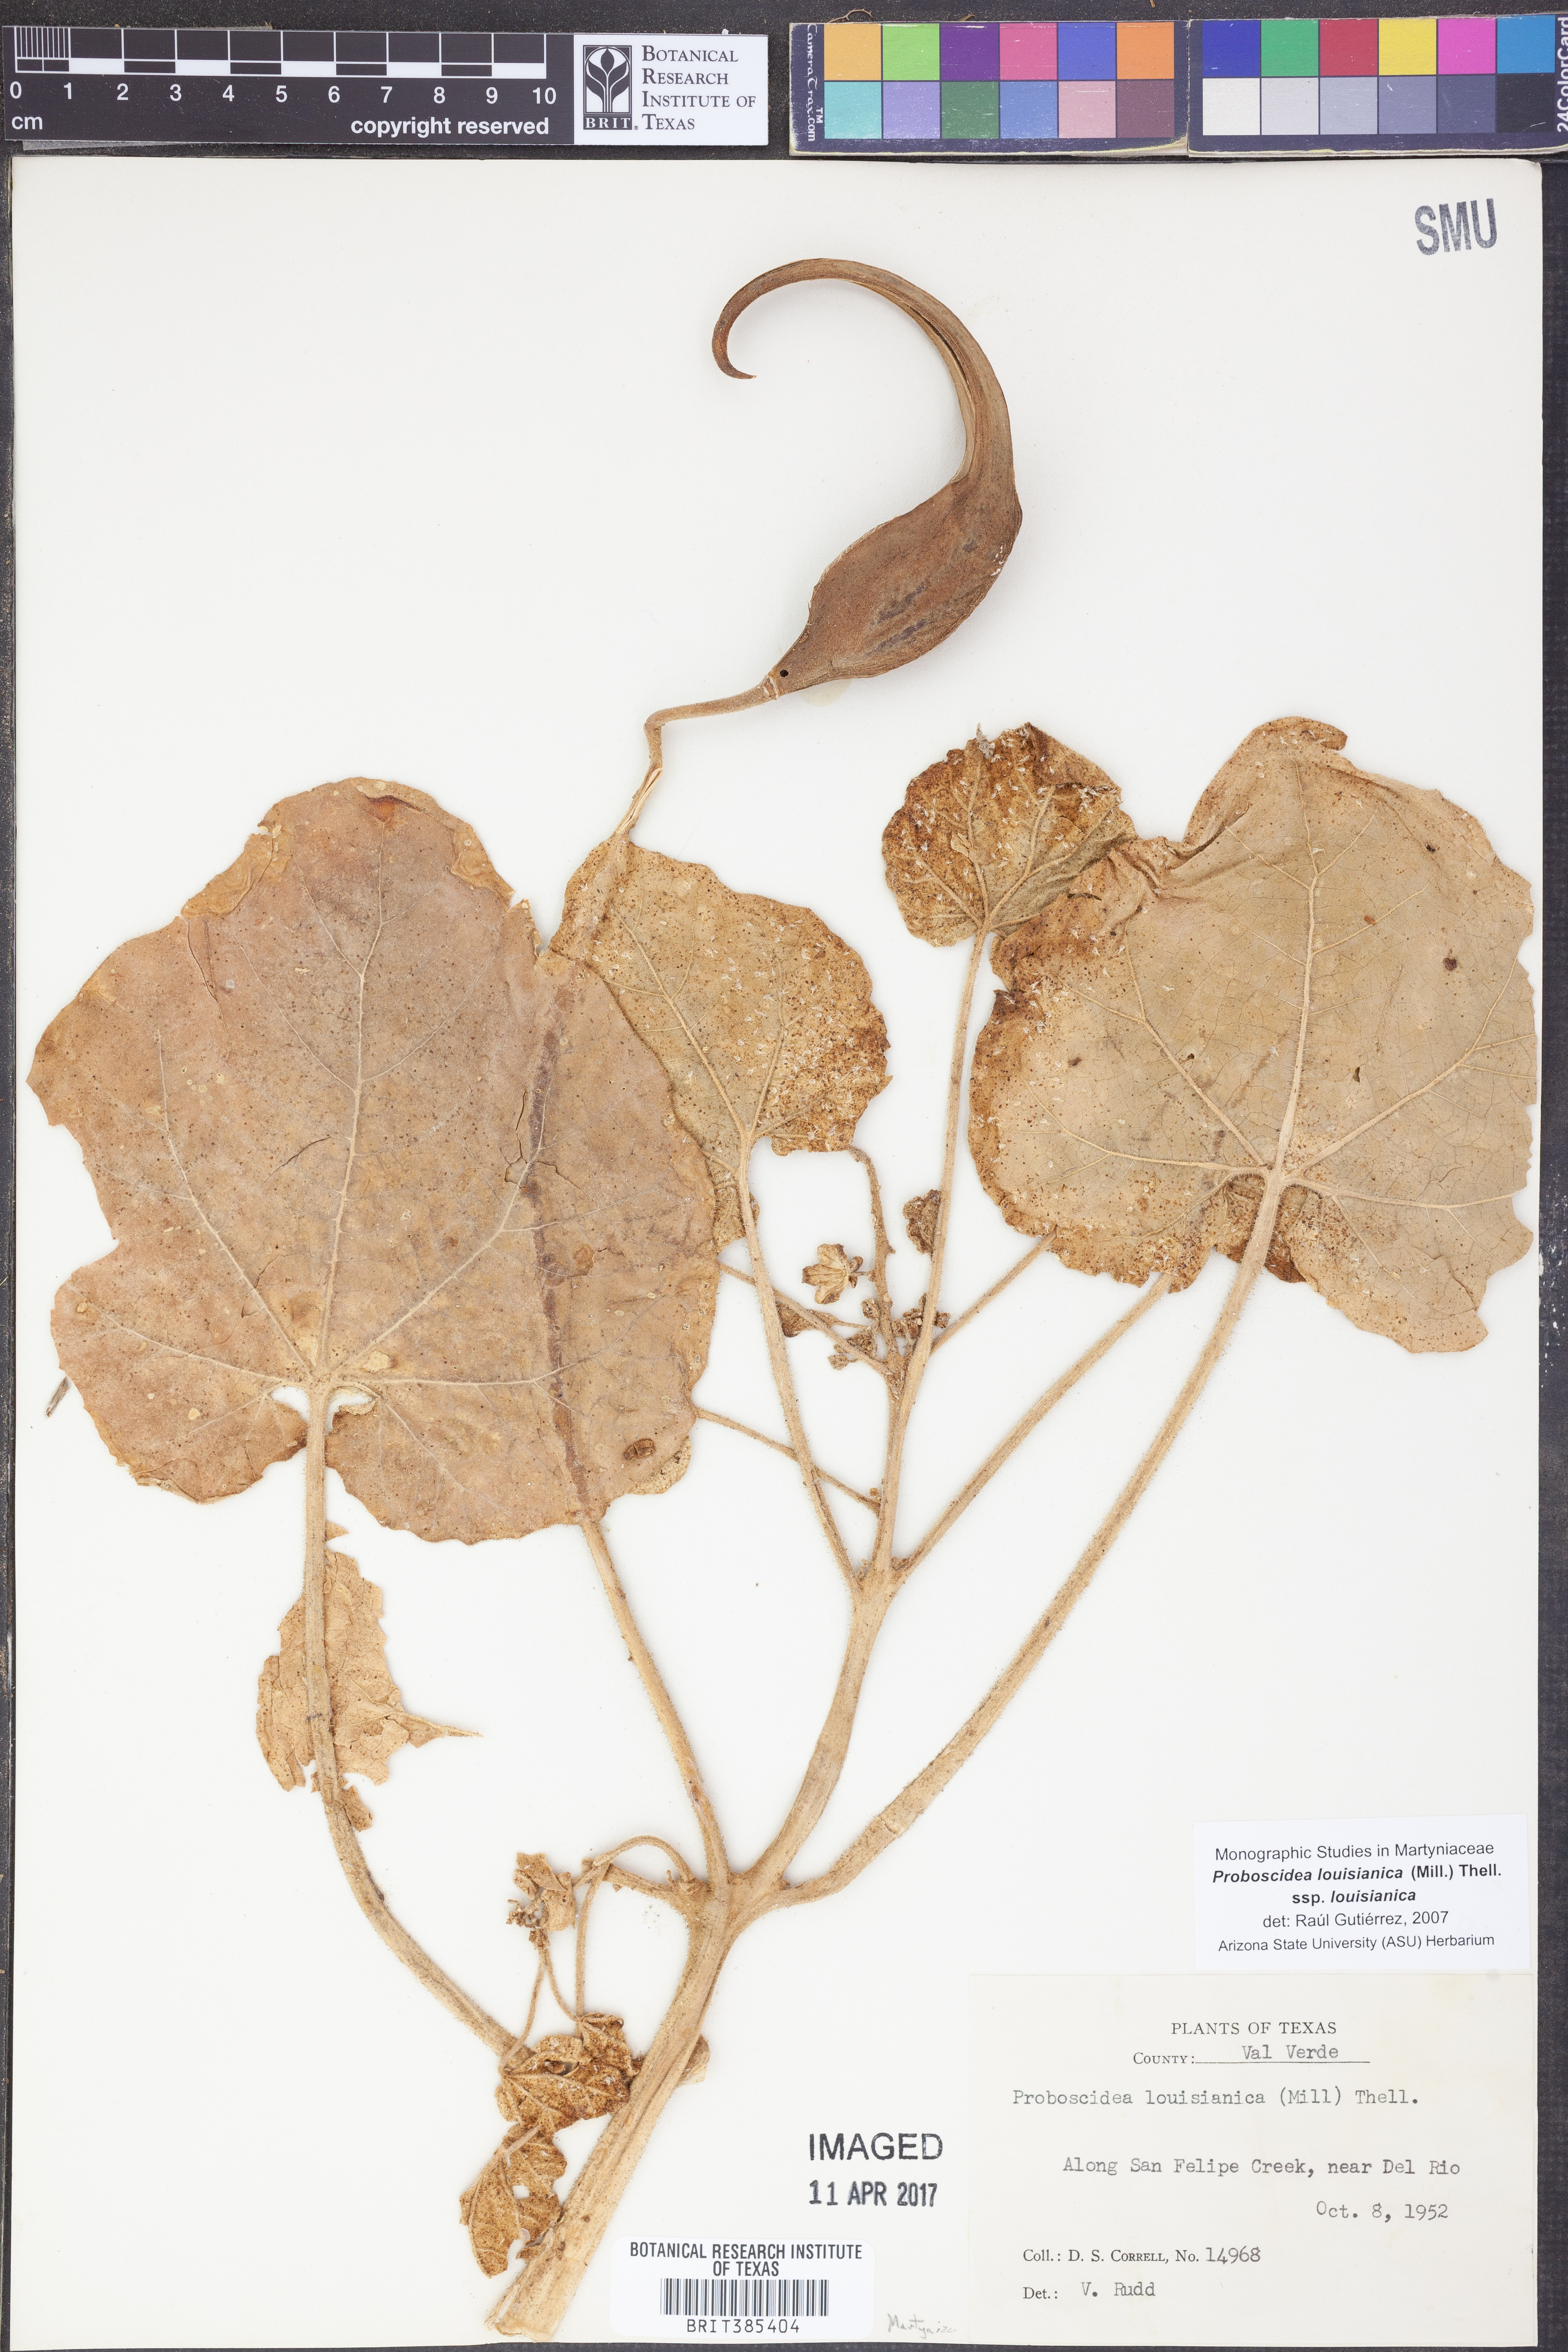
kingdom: Plantae
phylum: Tracheophyta
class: Magnoliopsida
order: Lamiales
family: Martyniaceae
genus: Proboscidea
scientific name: Proboscidea louisianica
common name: Elephant tusks
